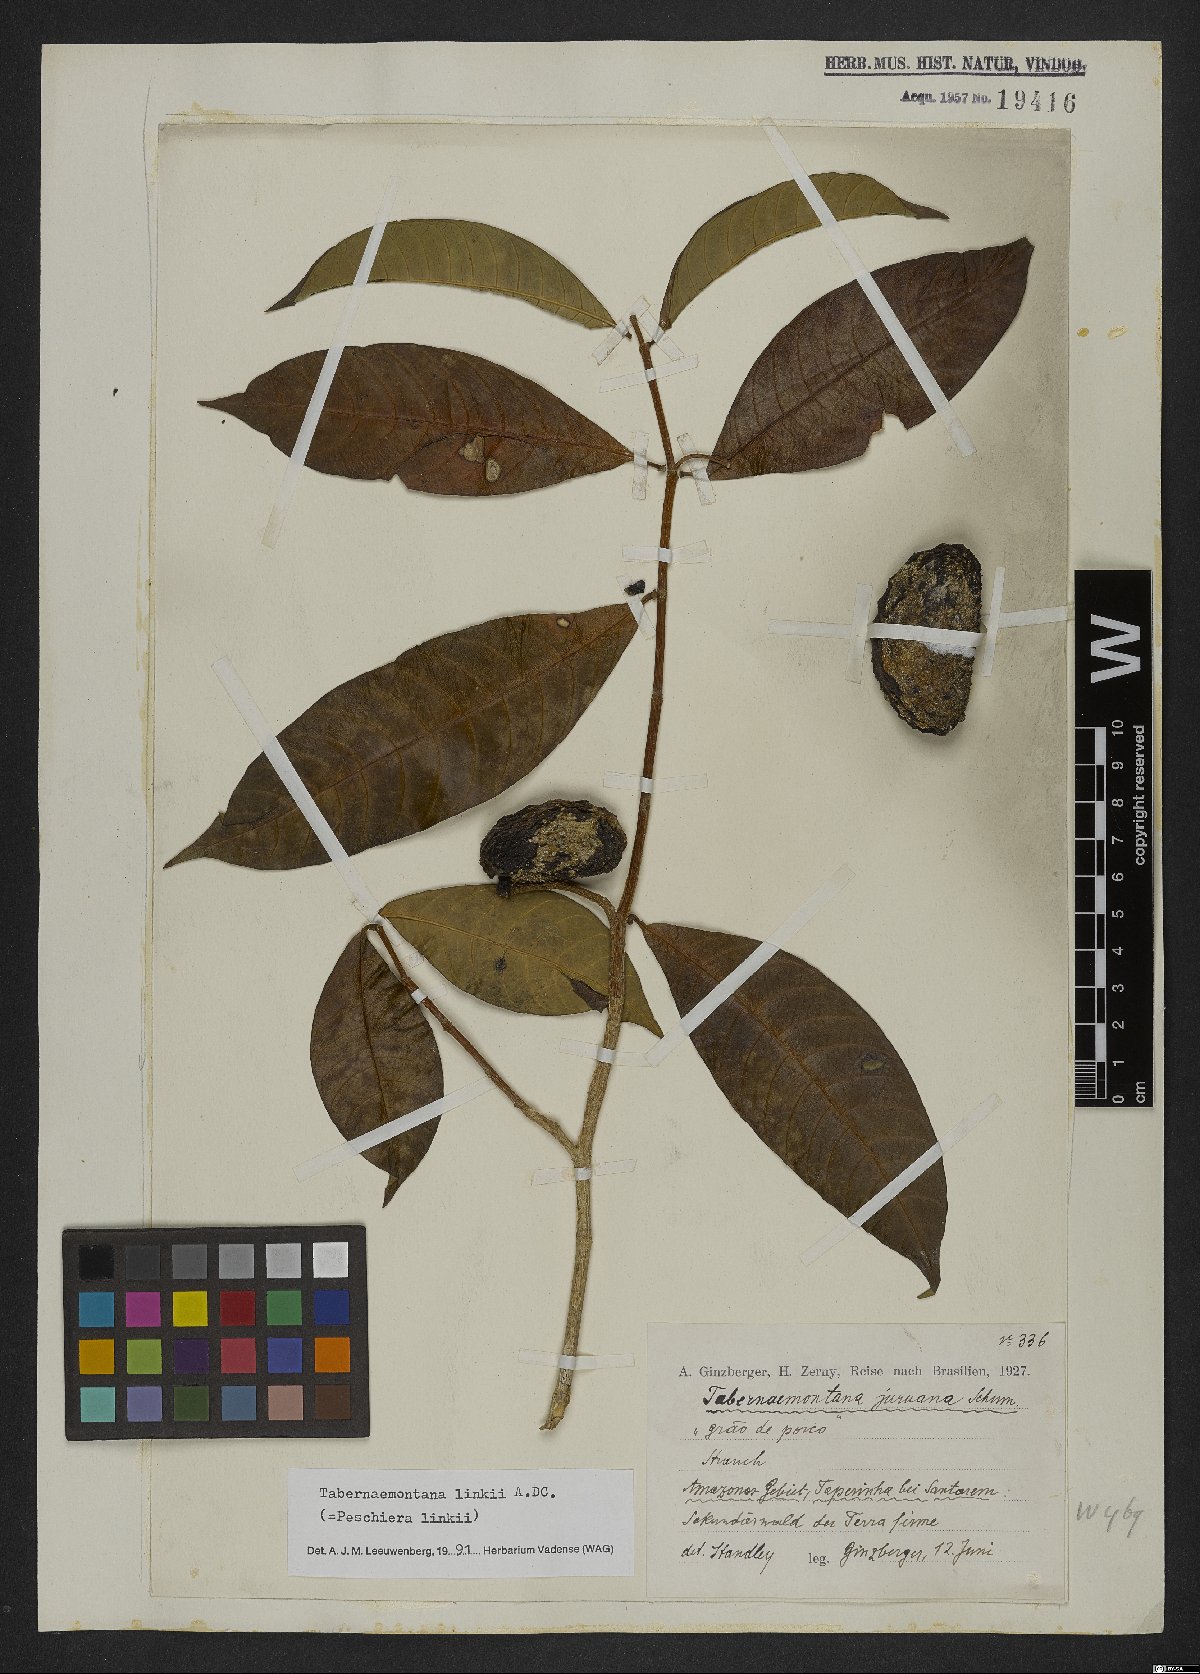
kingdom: Plantae
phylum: Tracheophyta
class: Magnoliopsida
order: Gentianales
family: Apocynaceae
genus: Tabernaemontana
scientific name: Tabernaemontana linkii
